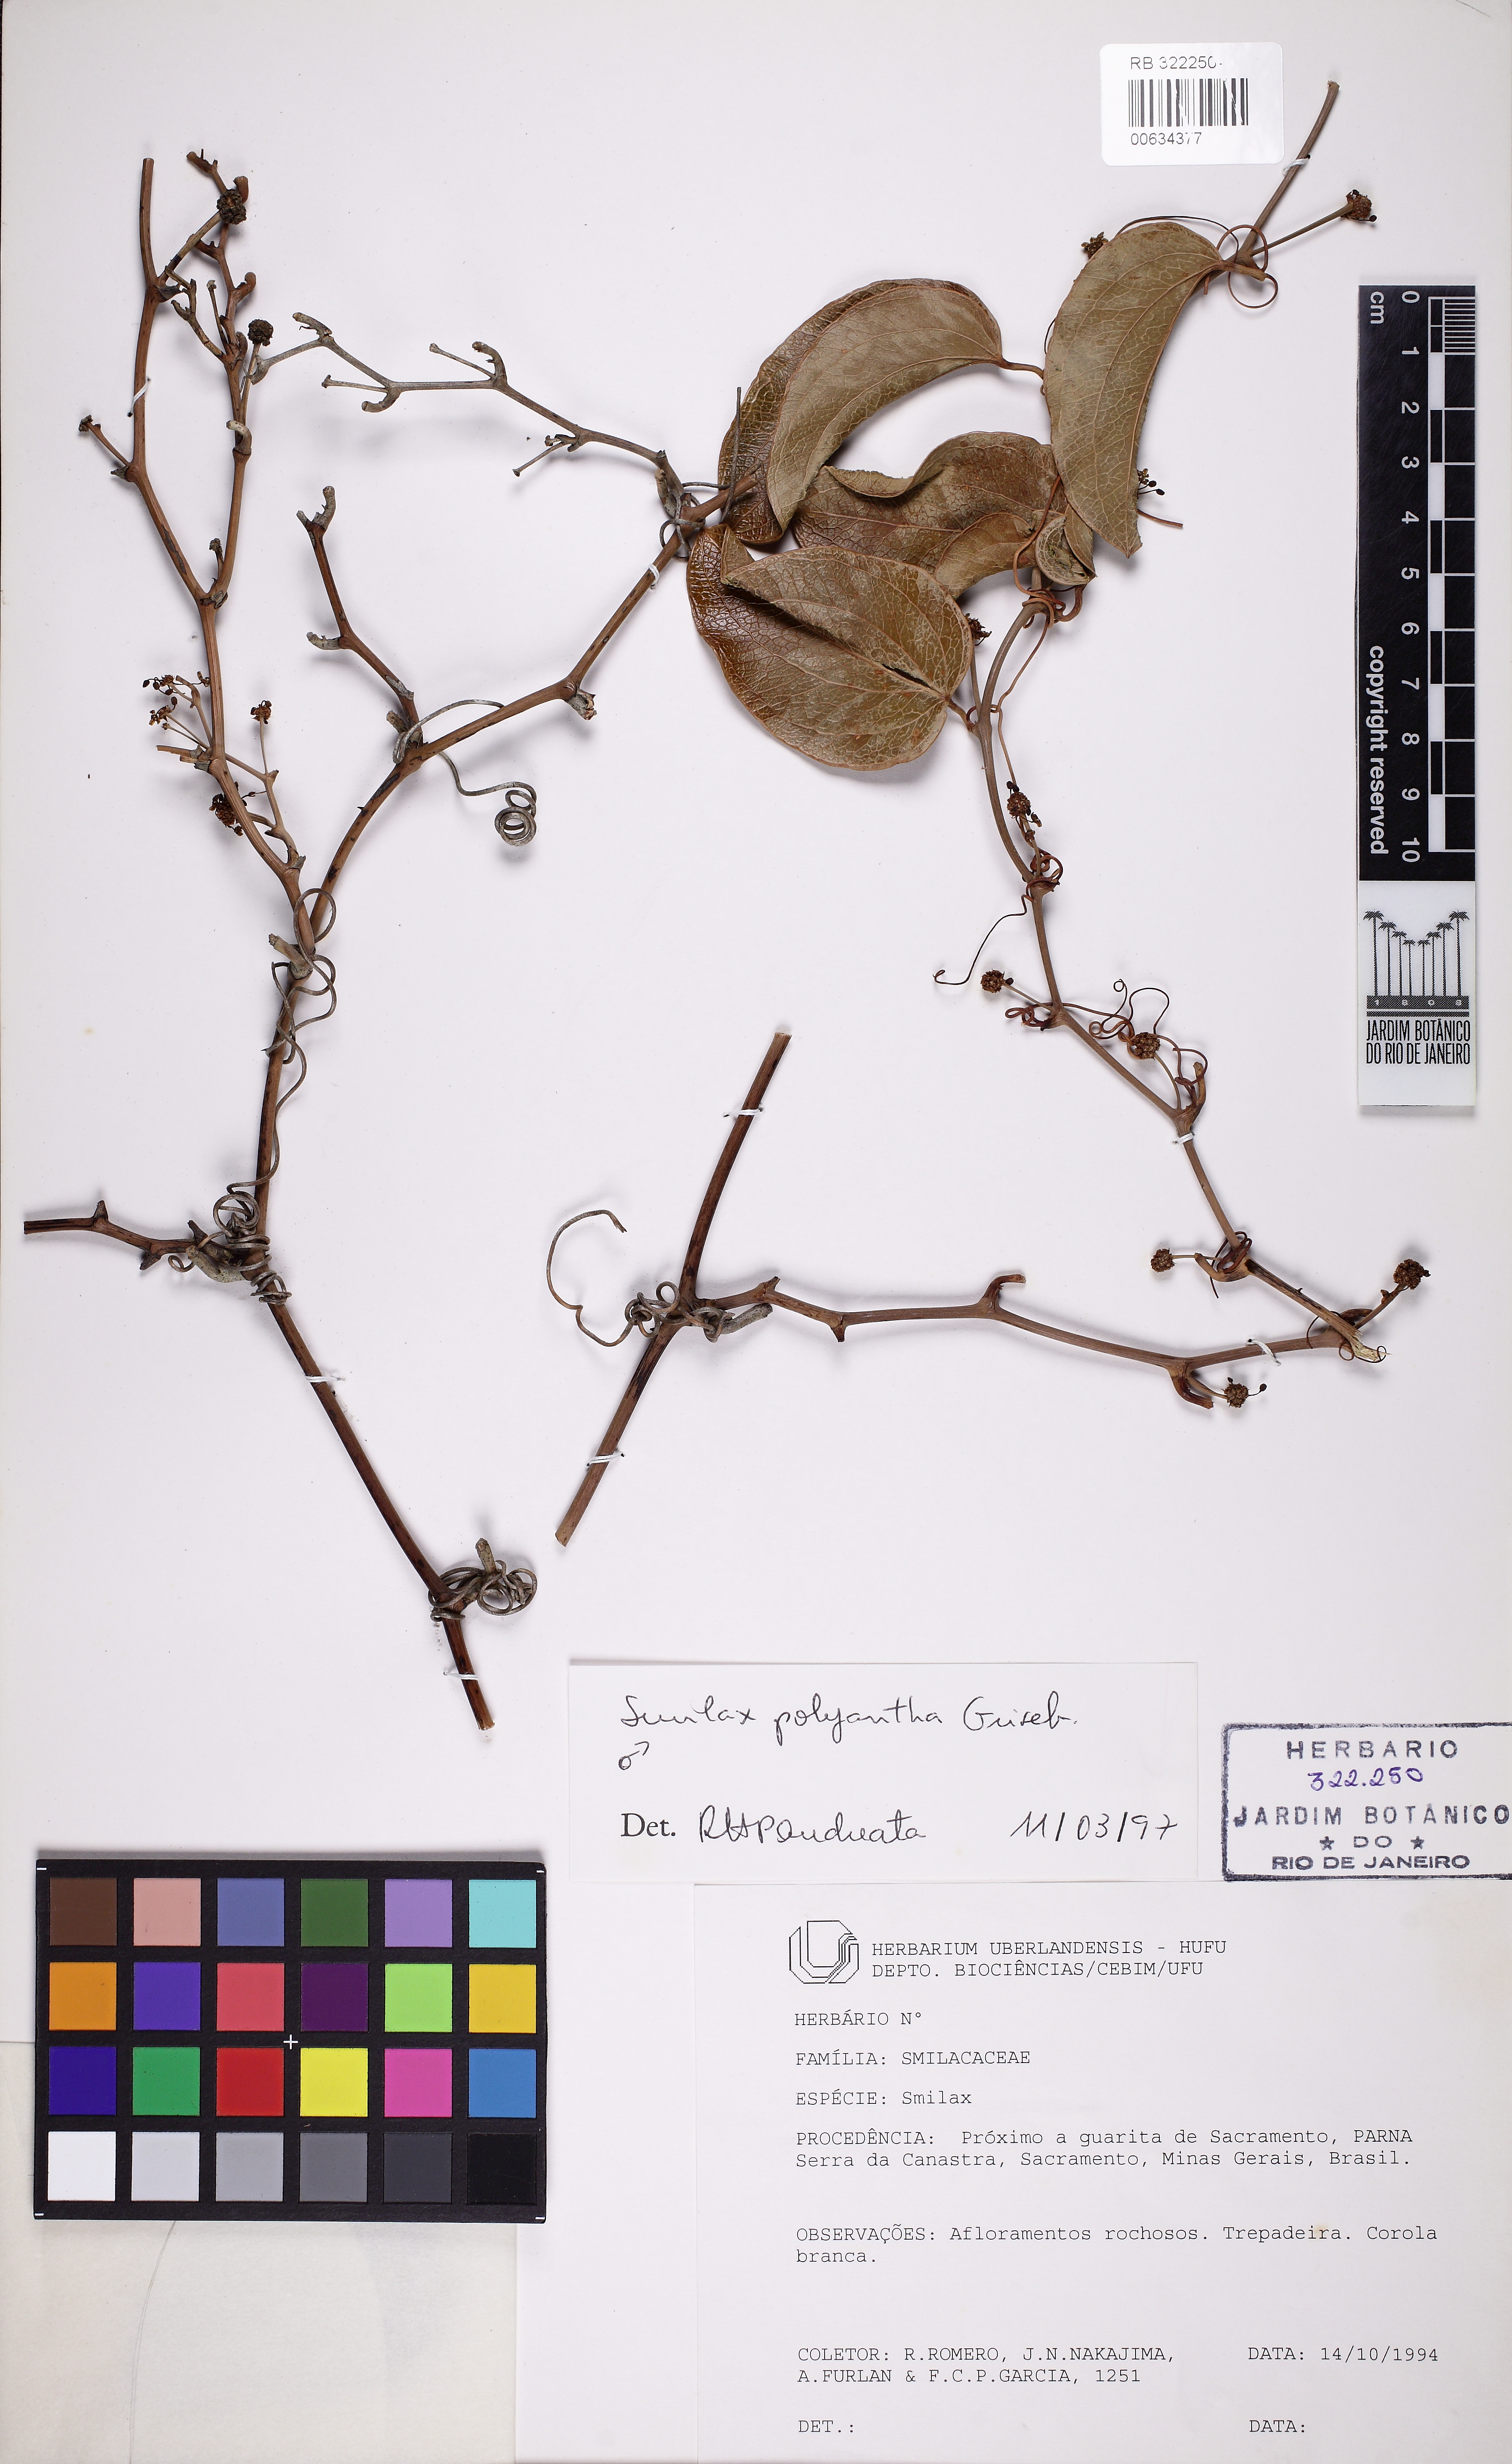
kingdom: Plantae
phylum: Tracheophyta
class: Liliopsida
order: Liliales
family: Smilacaceae
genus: Smilax
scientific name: Smilax polyantha
